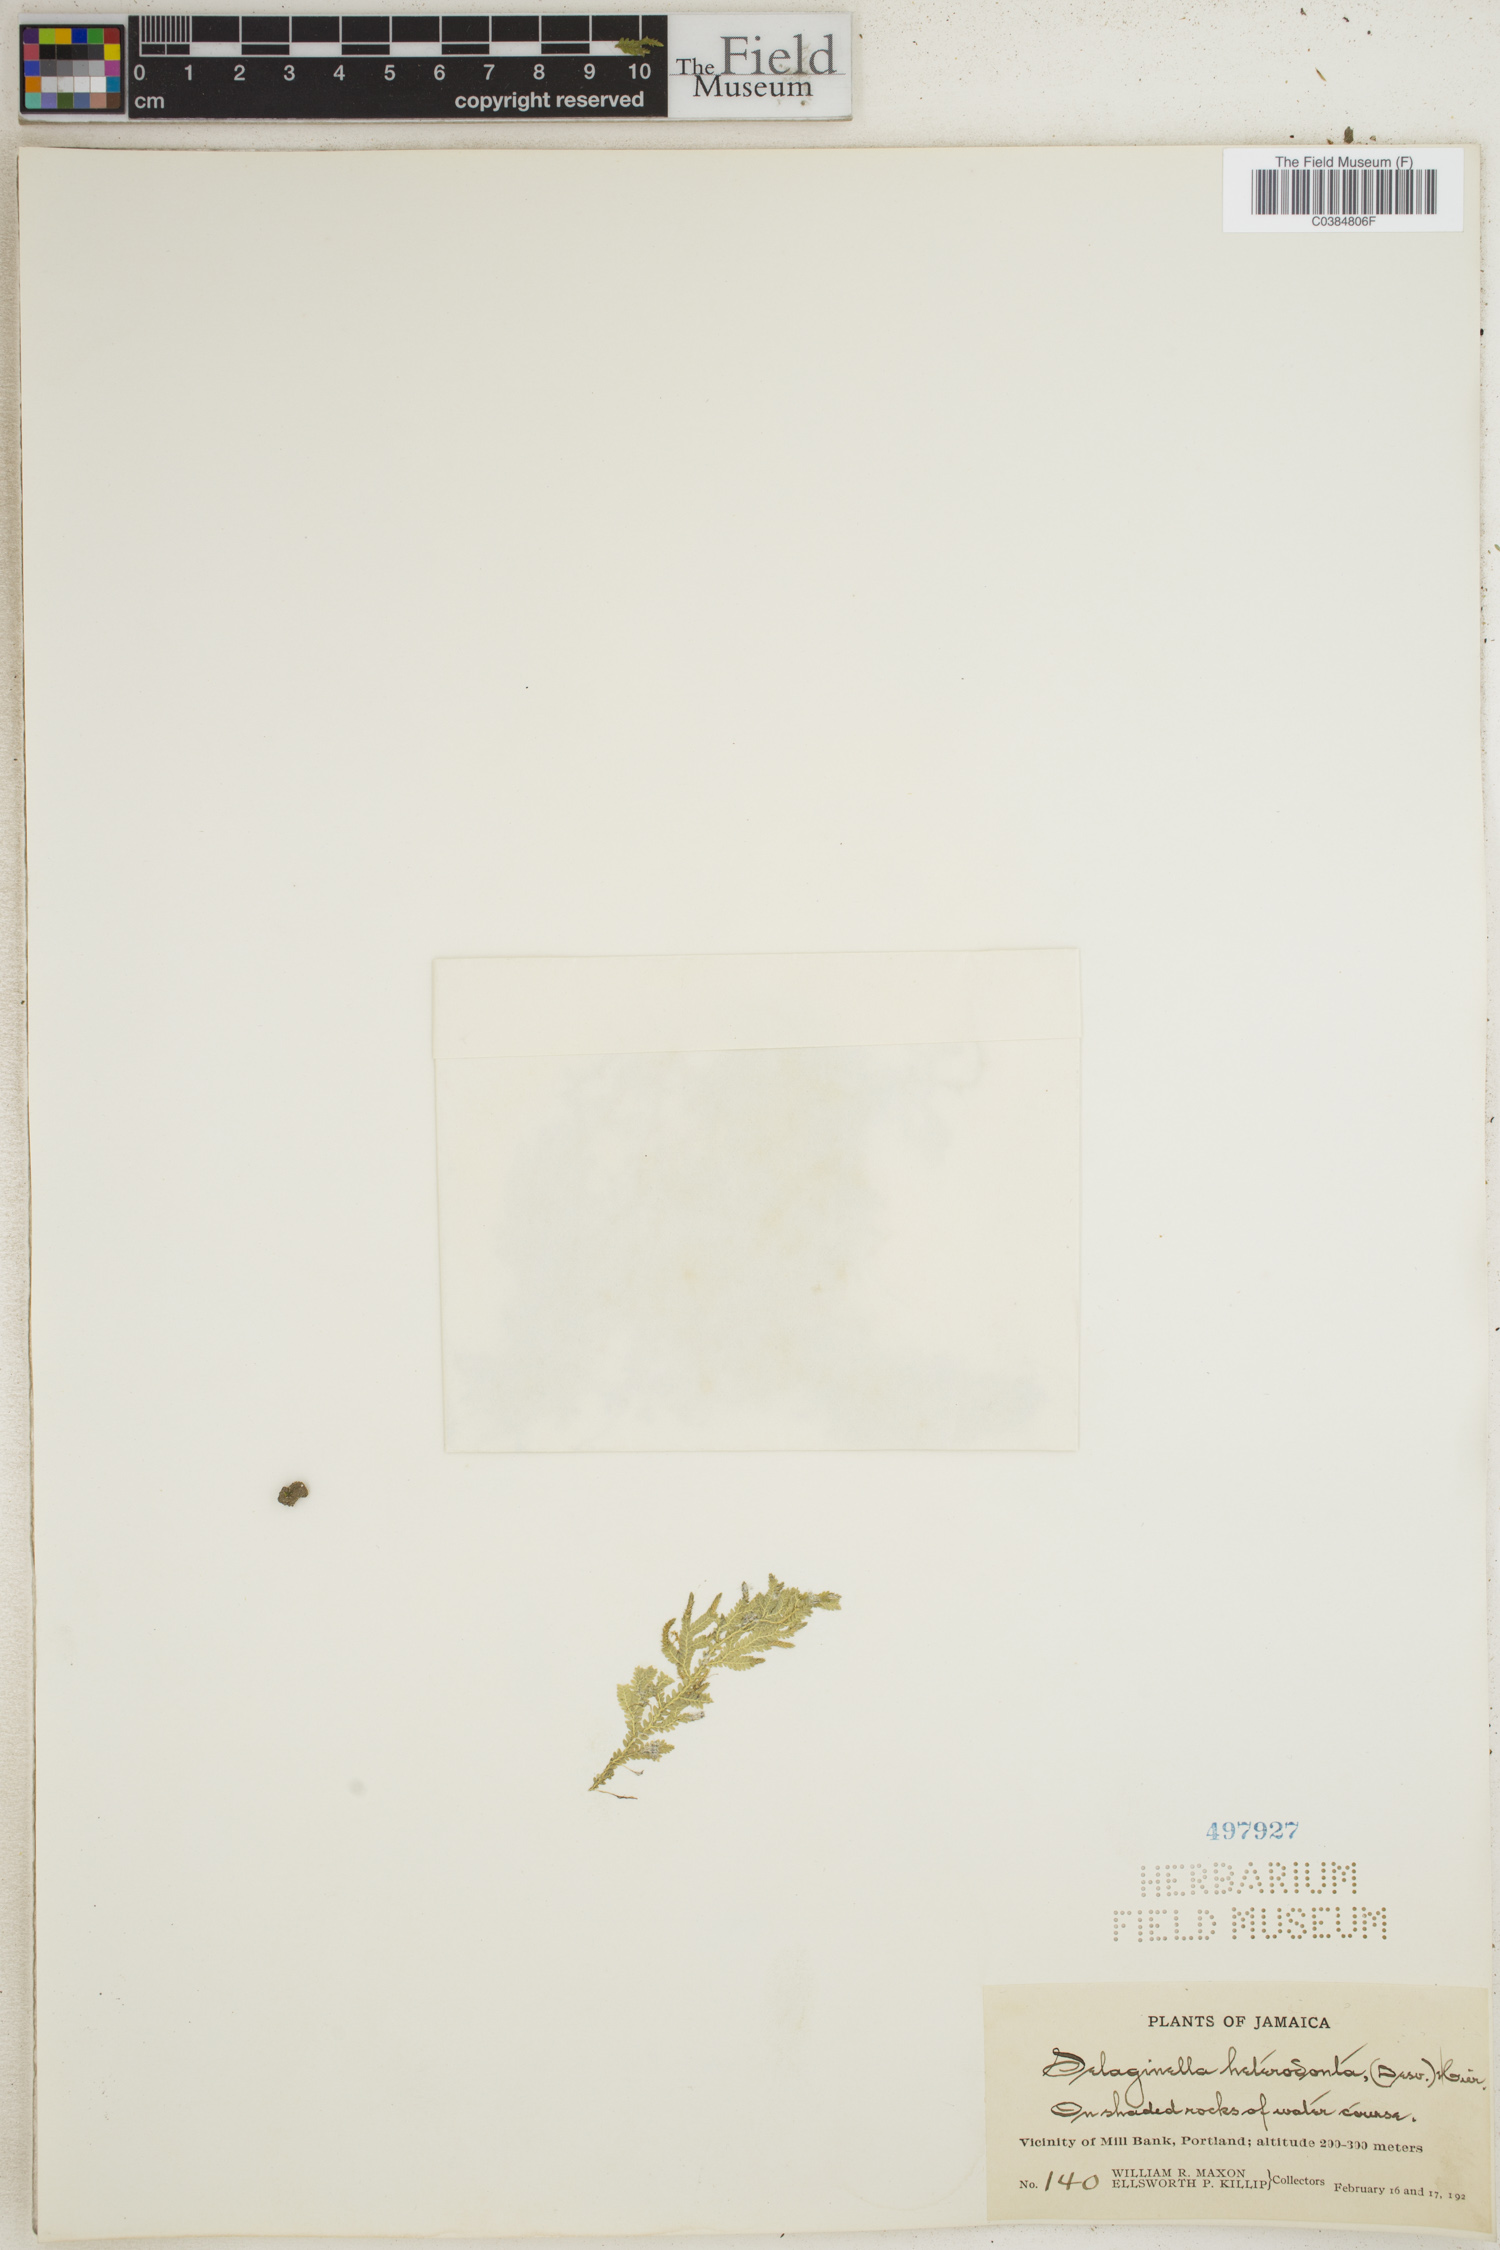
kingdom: Plantae
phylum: Tracheophyta
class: Lycopodiopsida
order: Selaginellales
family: Selaginellaceae
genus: Selaginella
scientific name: Selaginella heterodonta
